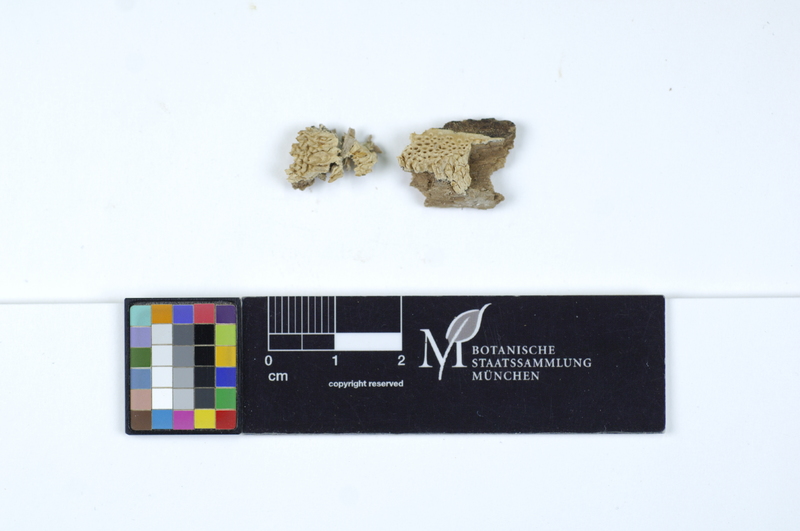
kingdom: Plantae
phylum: Tracheophyta
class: Magnoliopsida
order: Rosales
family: Rosaceae
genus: Malus
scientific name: Malus
